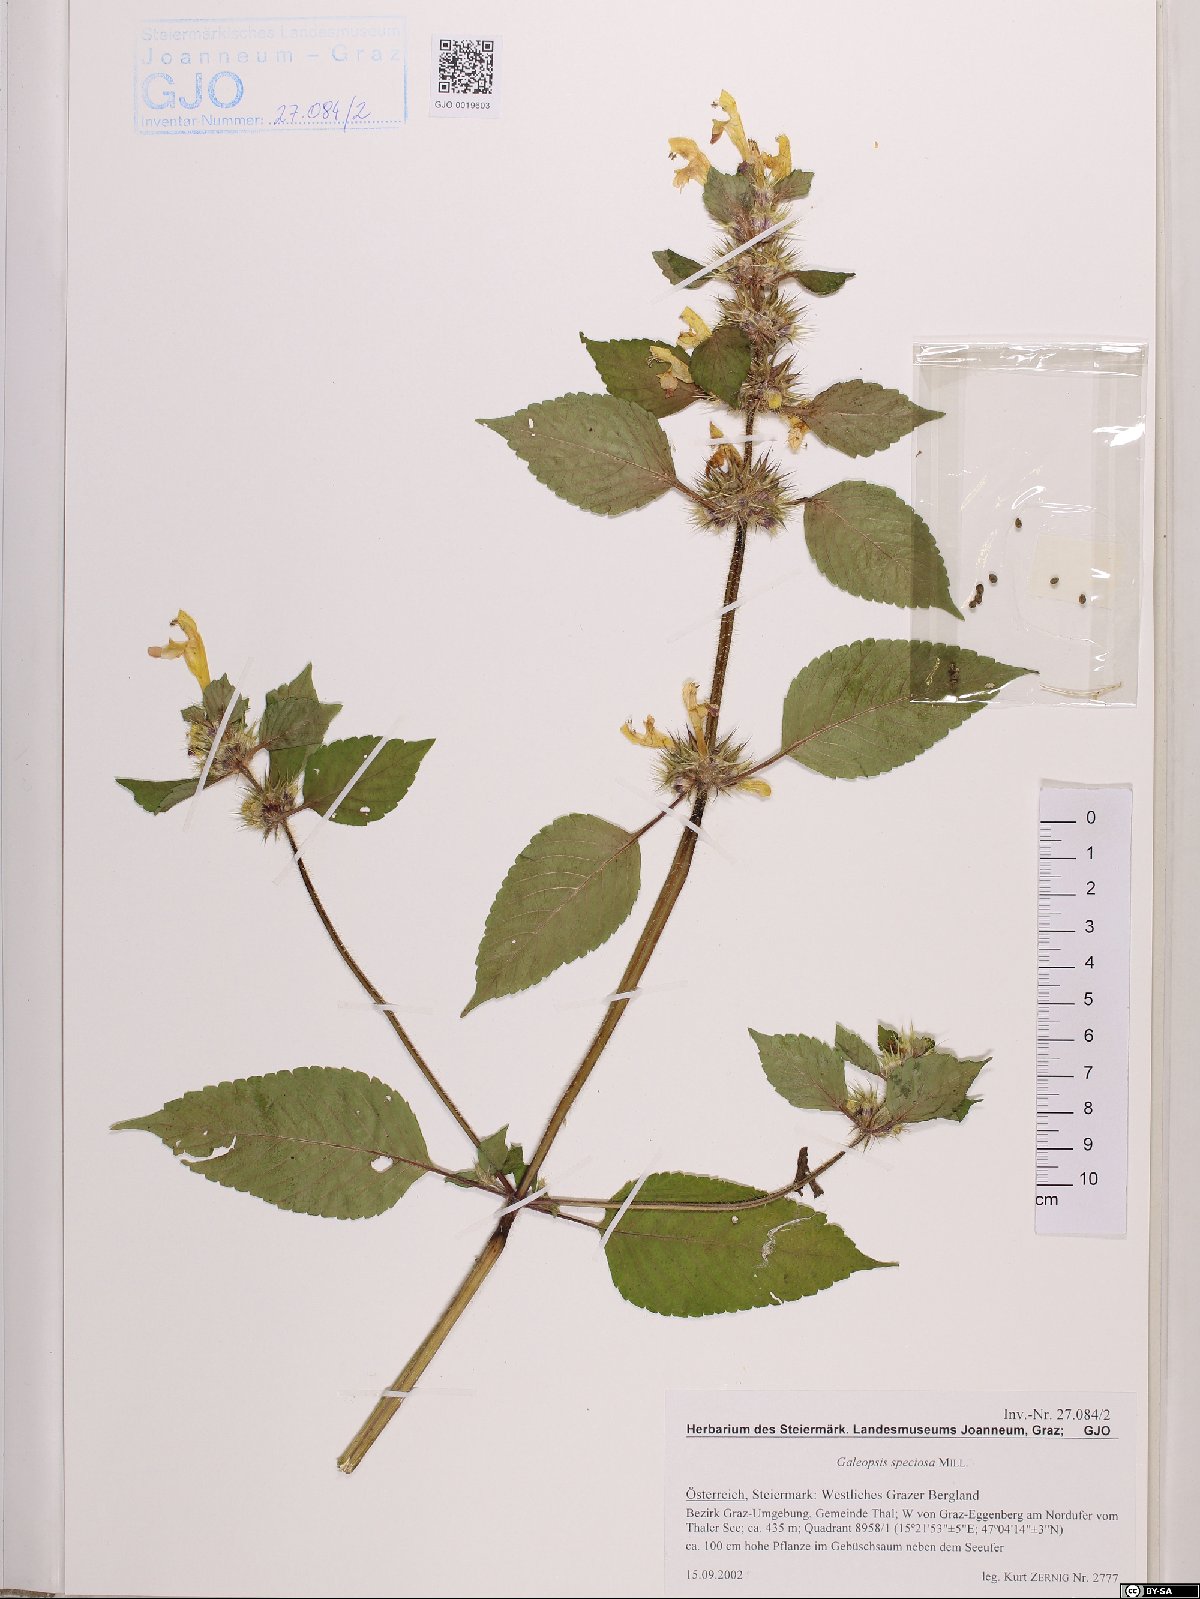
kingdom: Plantae
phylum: Tracheophyta
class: Magnoliopsida
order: Lamiales
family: Lamiaceae
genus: Galeopsis
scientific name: Galeopsis speciosa
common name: Large-flowered hemp-nettle
